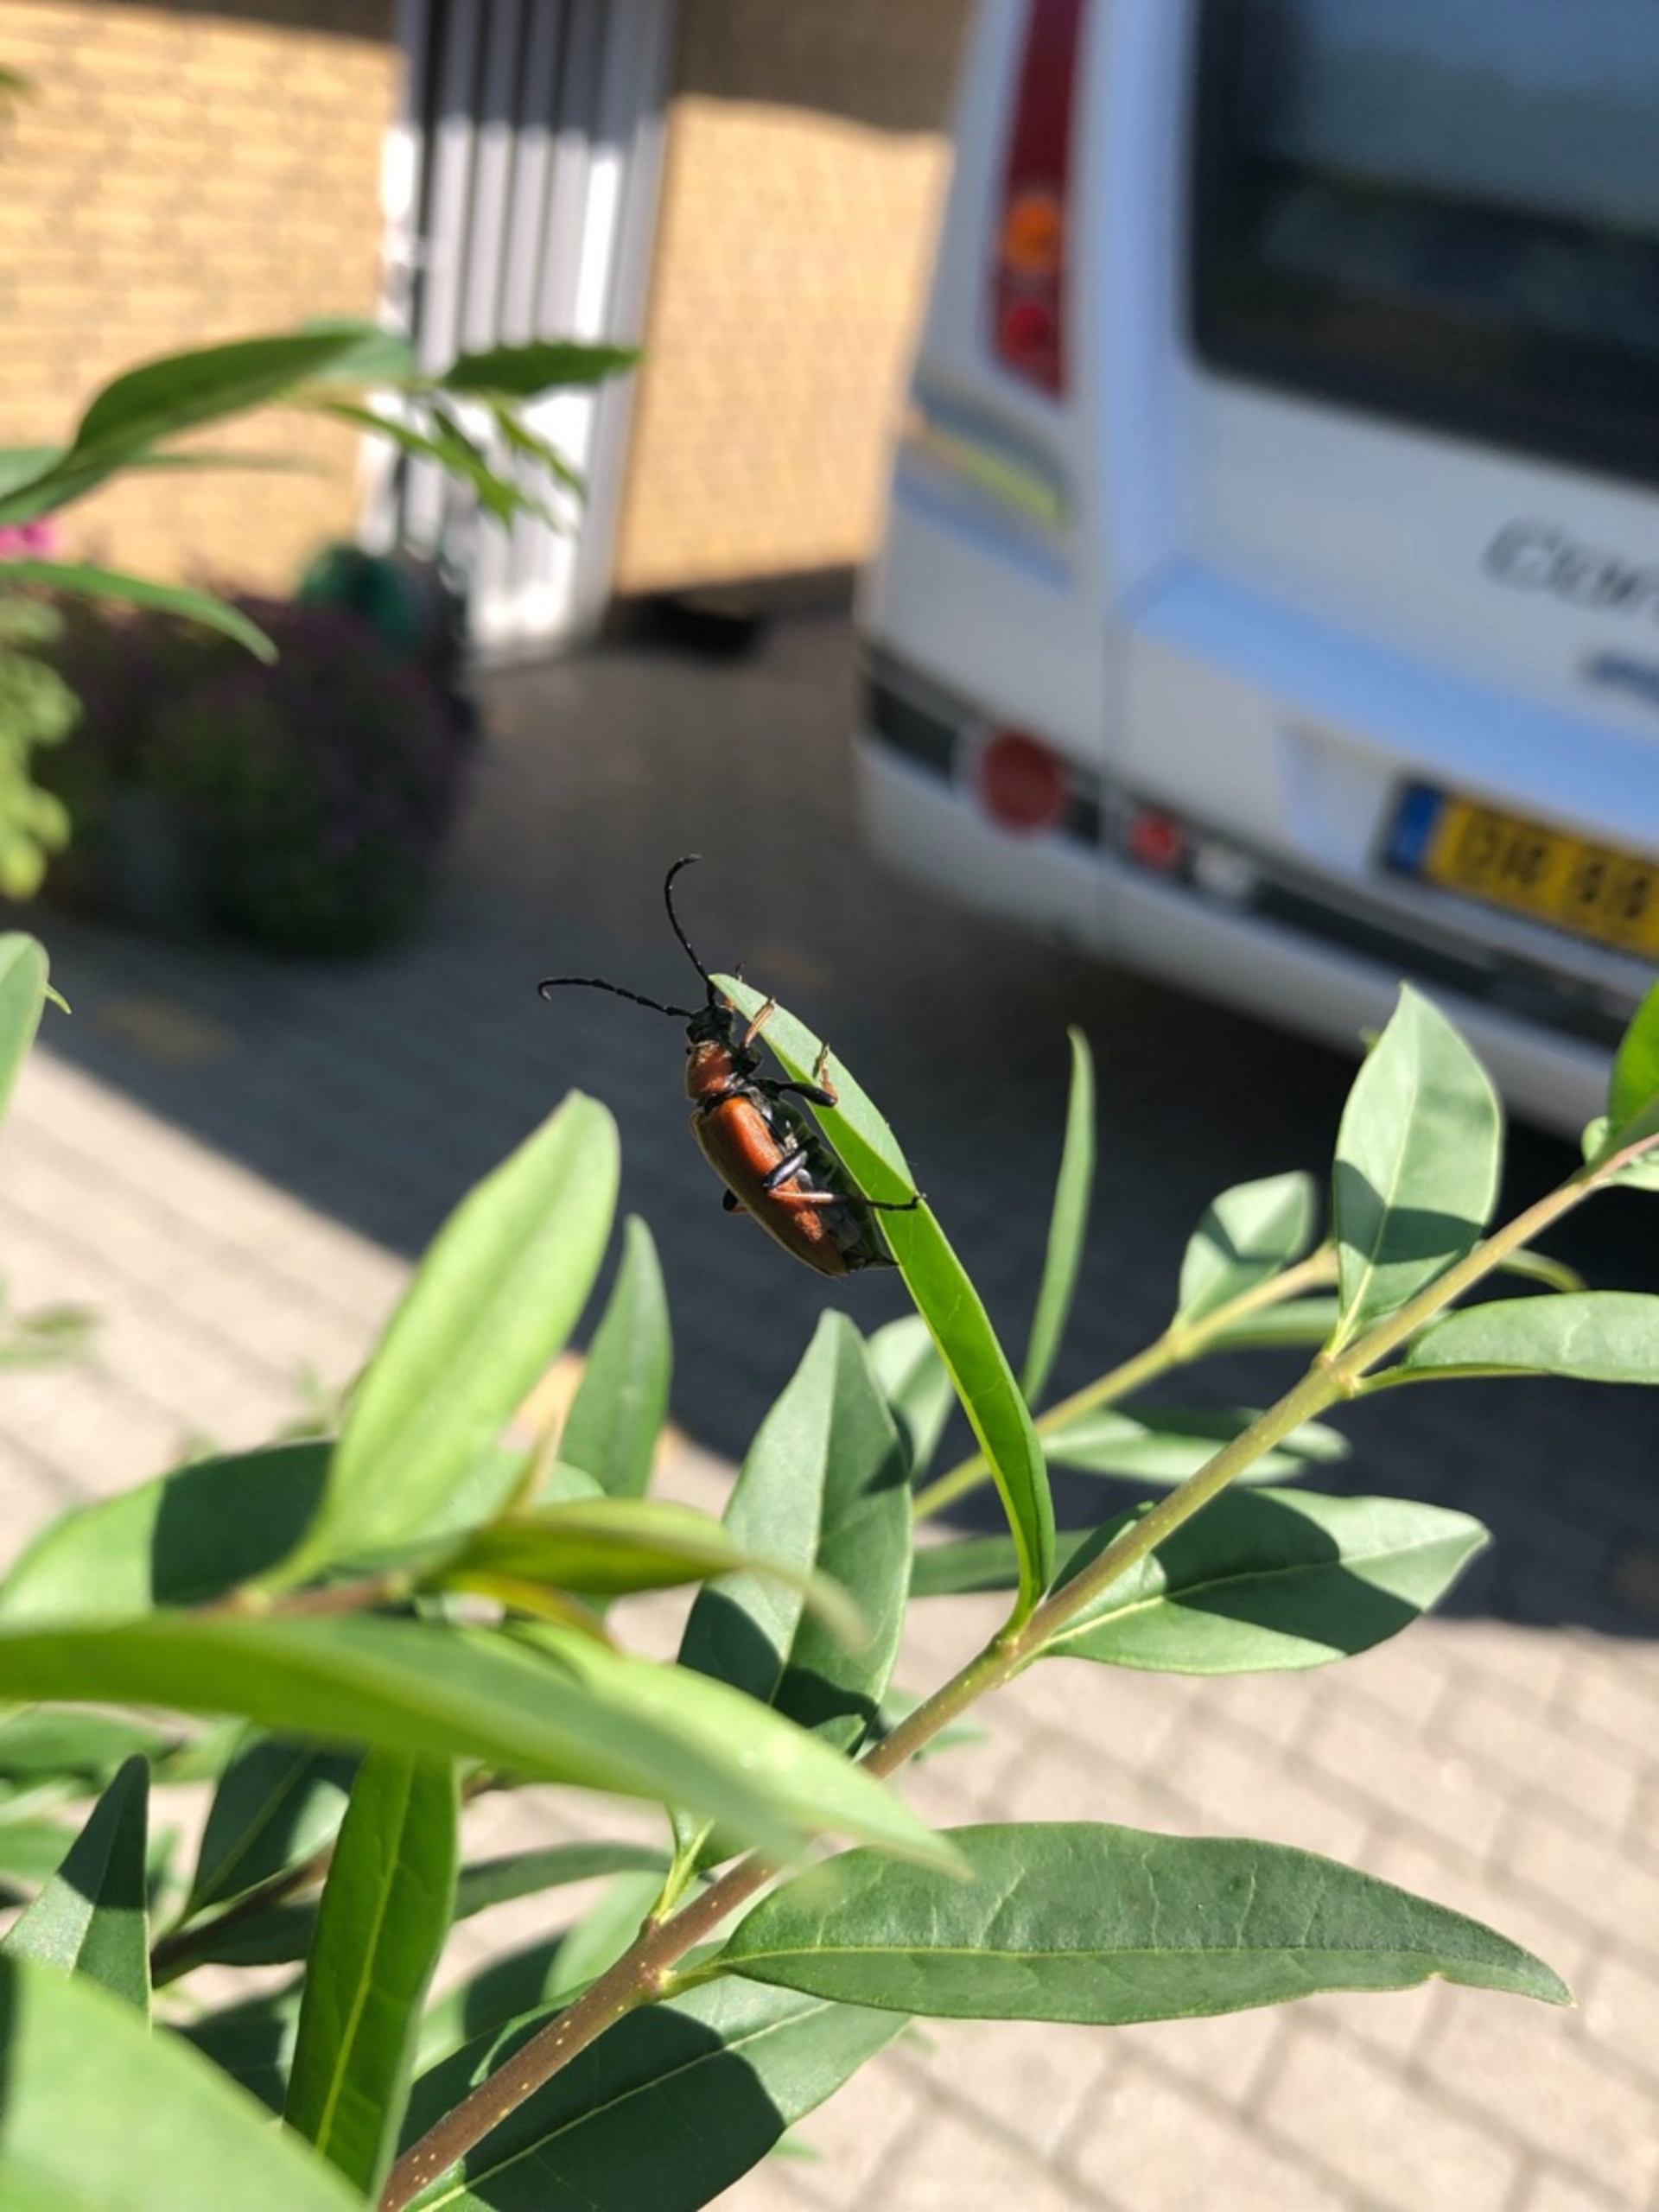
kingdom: Animalia
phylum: Arthropoda
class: Insecta
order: Coleoptera
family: Cerambycidae
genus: Stictoleptura
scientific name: Stictoleptura rubra
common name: Rød blomsterbuk
